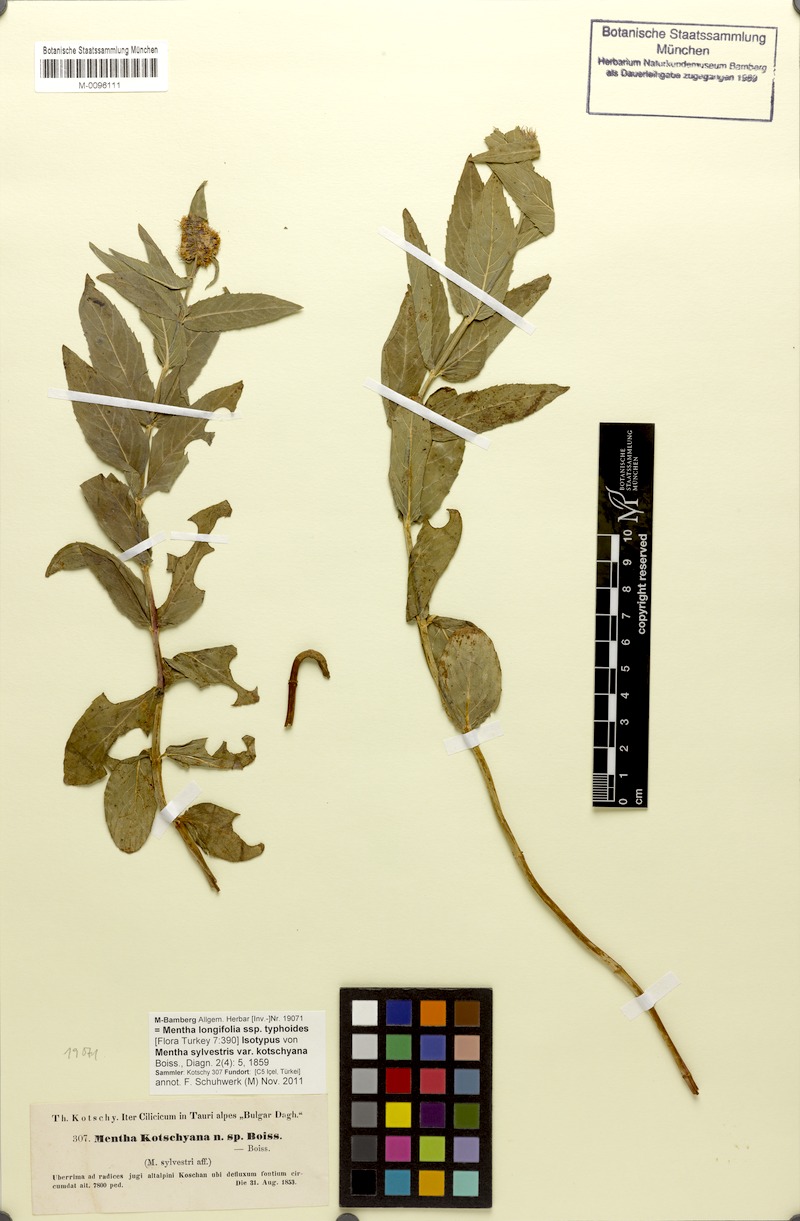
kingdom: Plantae
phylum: Tracheophyta
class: Magnoliopsida
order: Lamiales
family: Lamiaceae
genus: Mentha
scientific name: Mentha longifolia
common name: Horse mint
